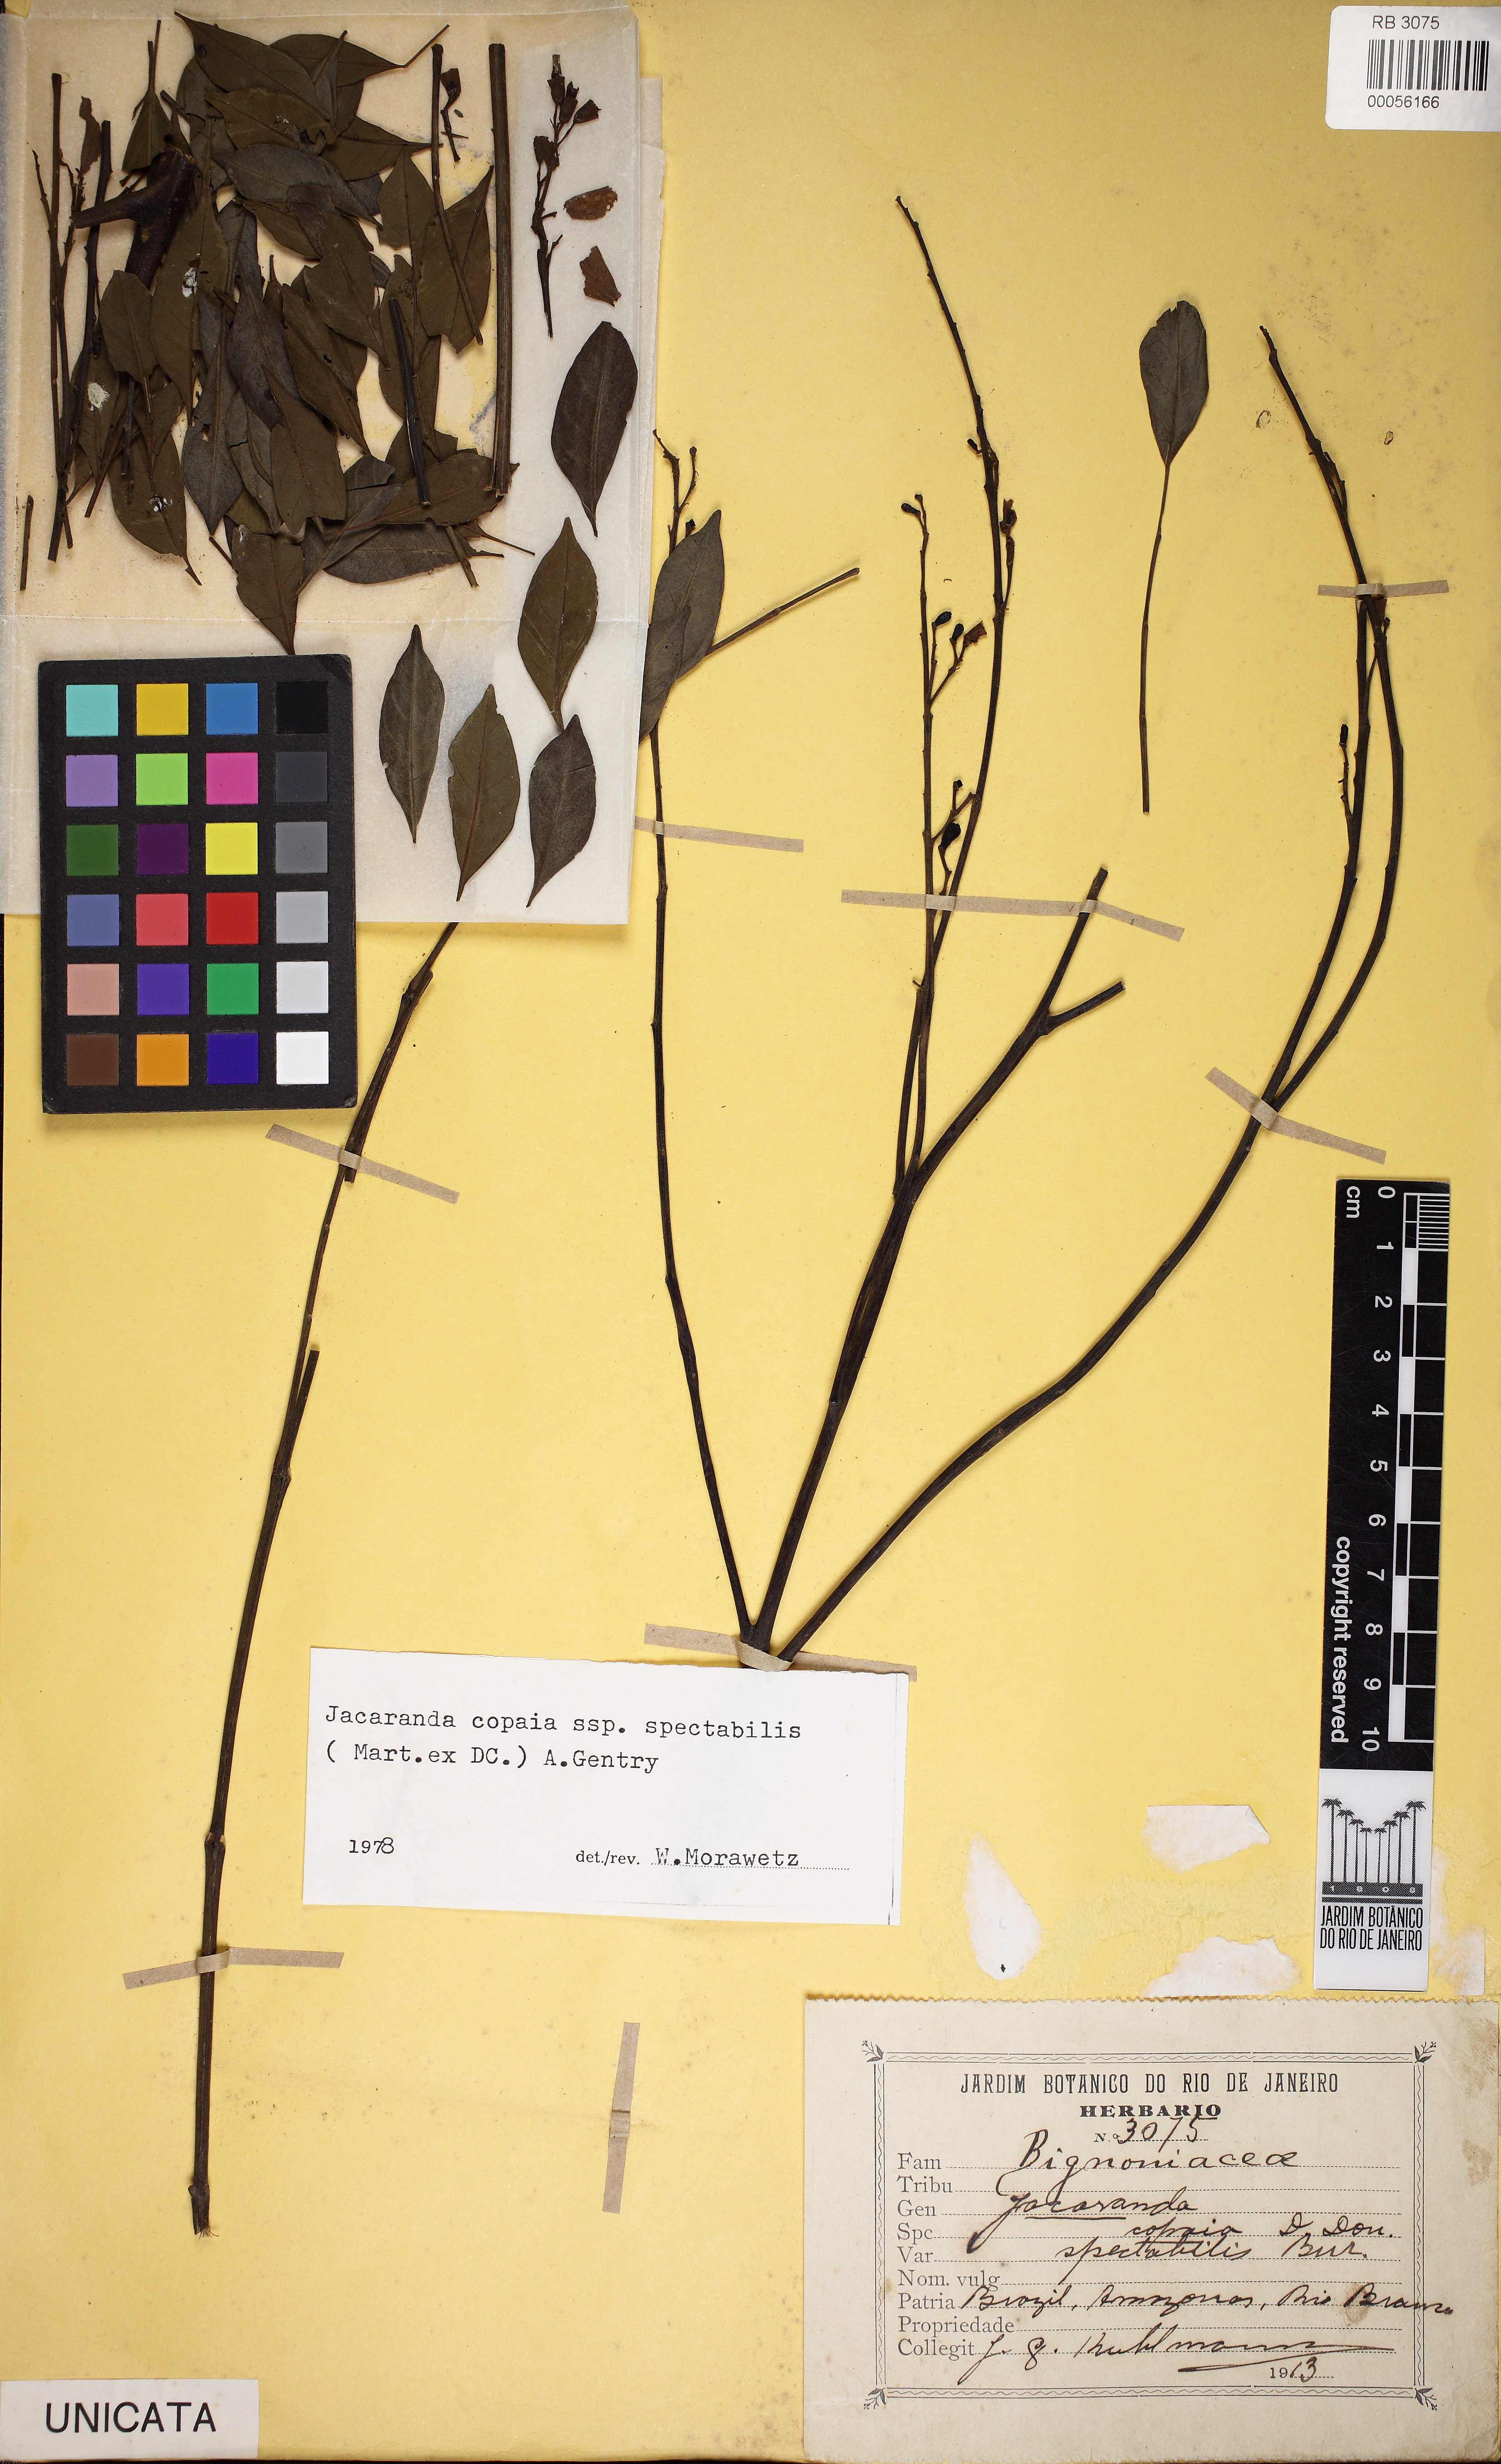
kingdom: Plantae
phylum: Tracheophyta
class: Magnoliopsida
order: Lamiales
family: Bignoniaceae
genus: Jacaranda
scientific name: Jacaranda copaia
